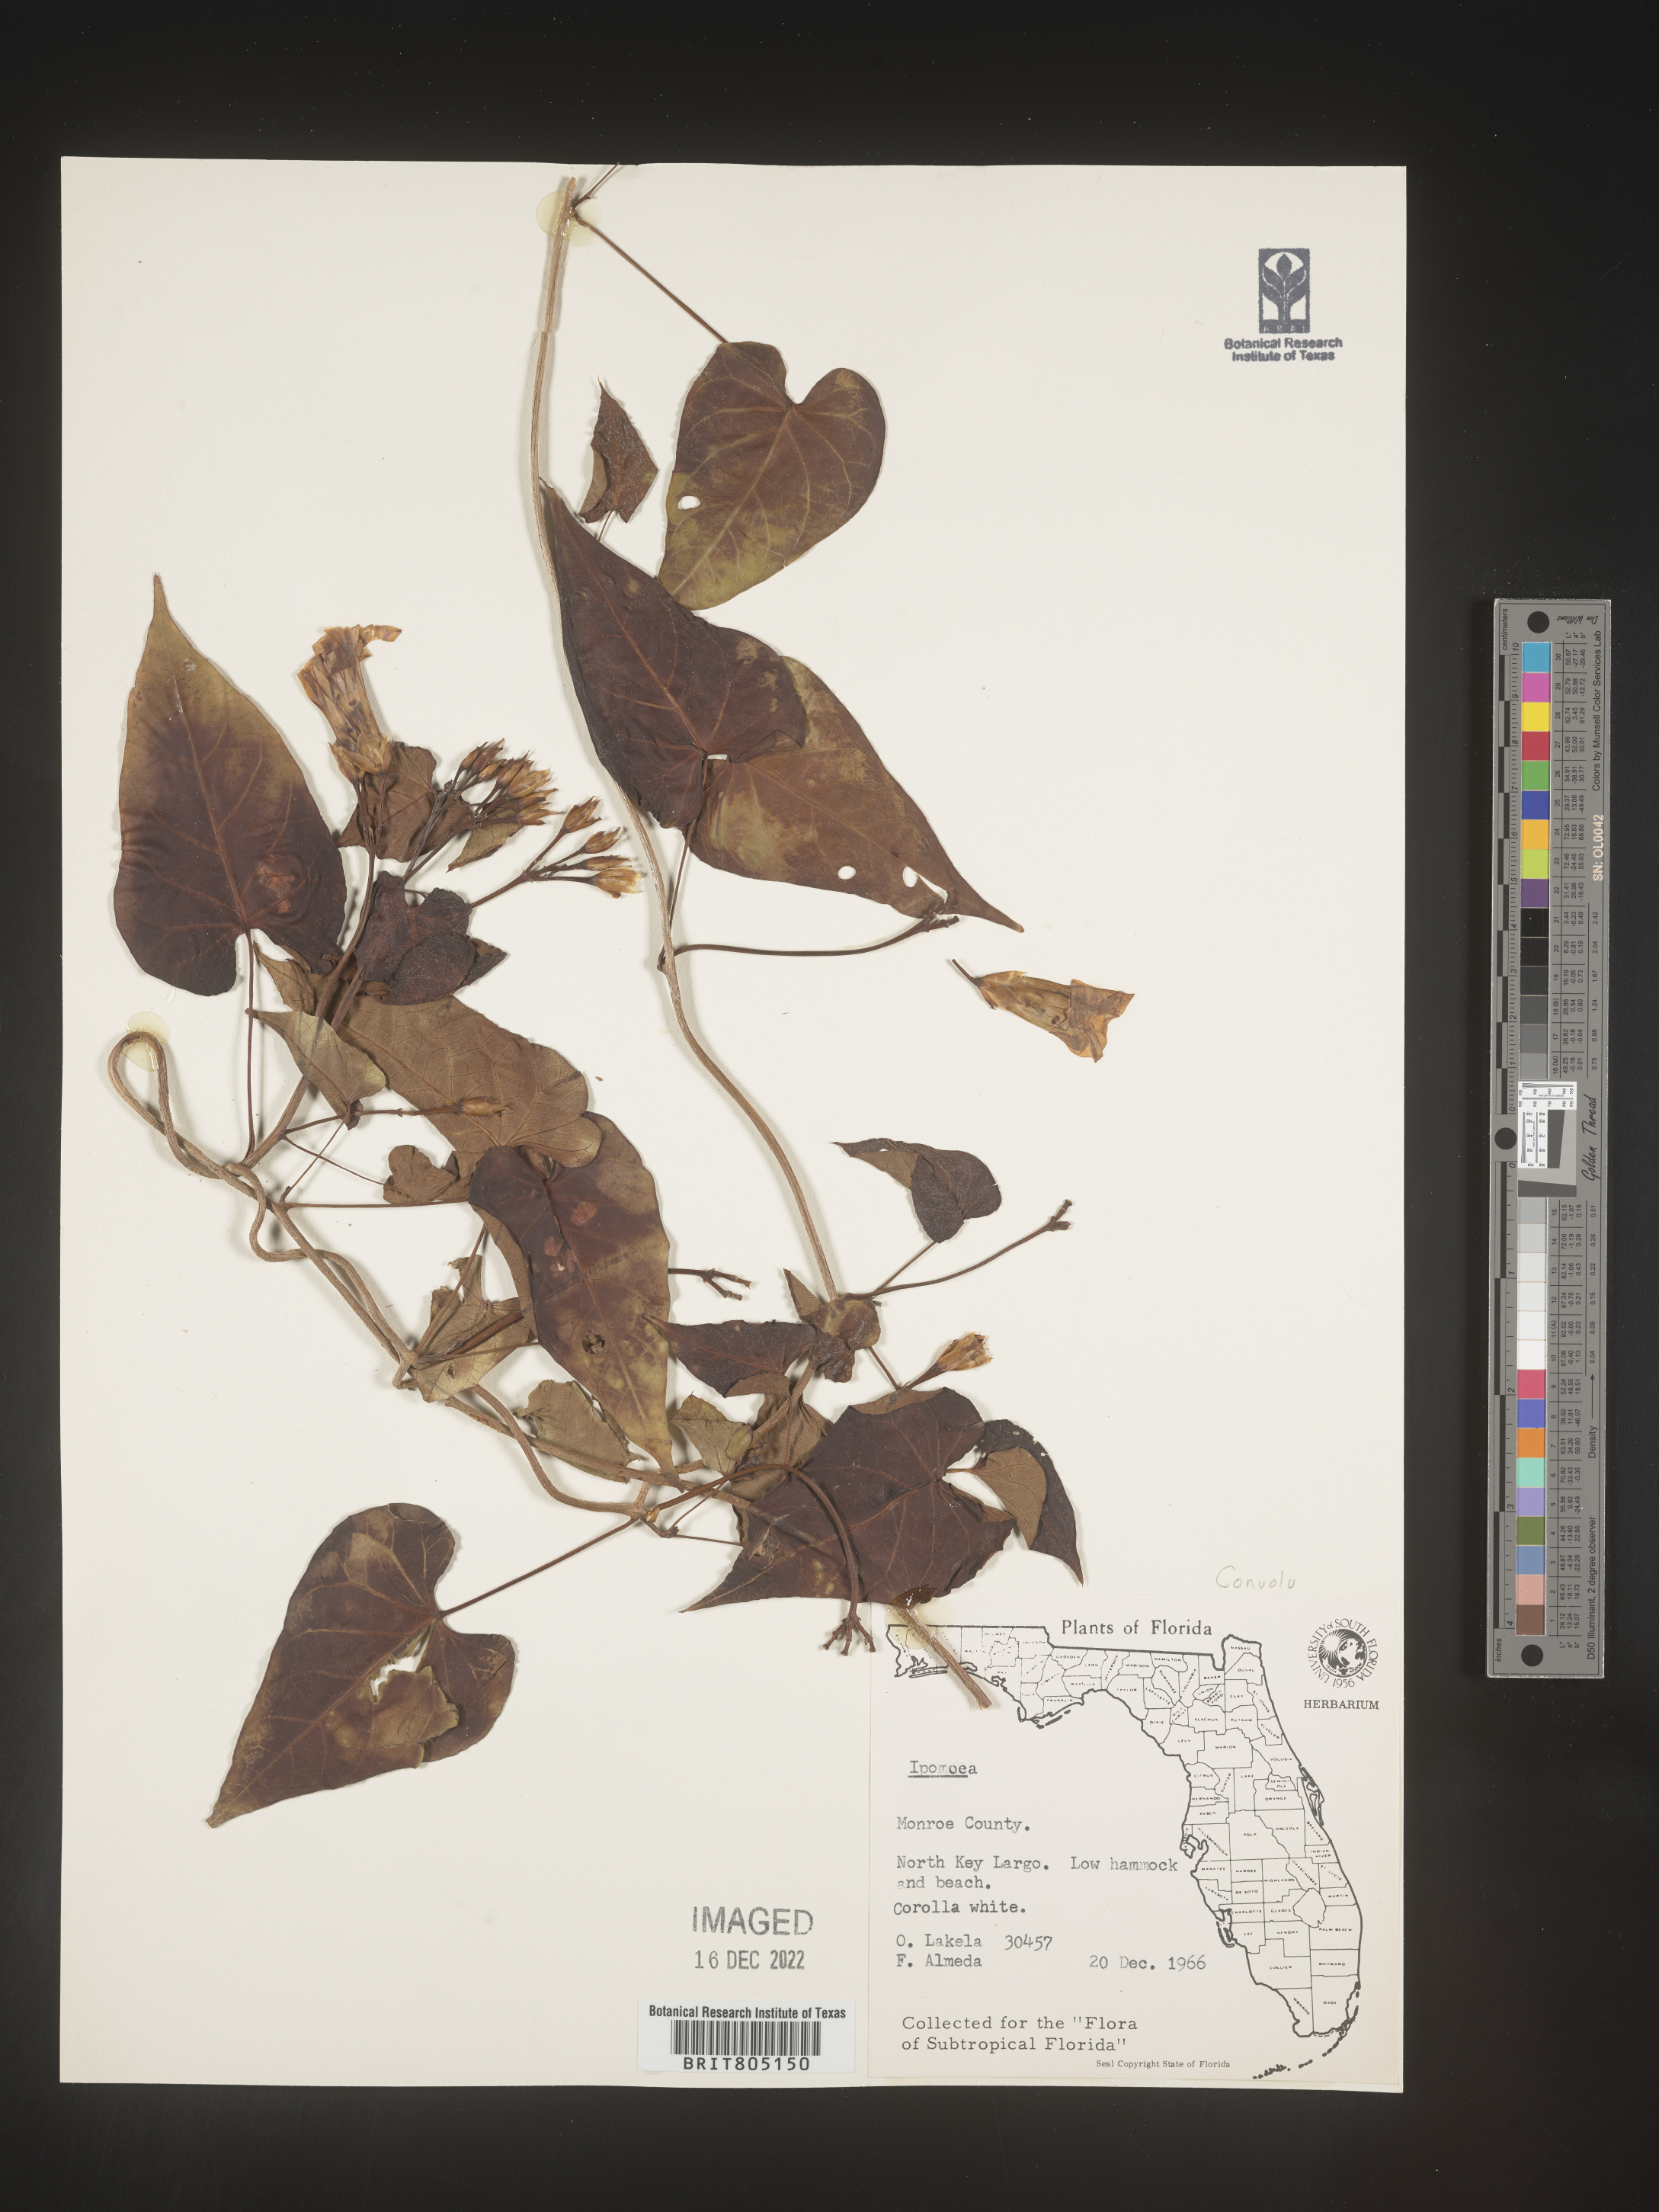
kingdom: Plantae
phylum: Tracheophyta
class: Magnoliopsida
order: Solanales
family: Convolvulaceae
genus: Ipomoea
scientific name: Ipomoea
